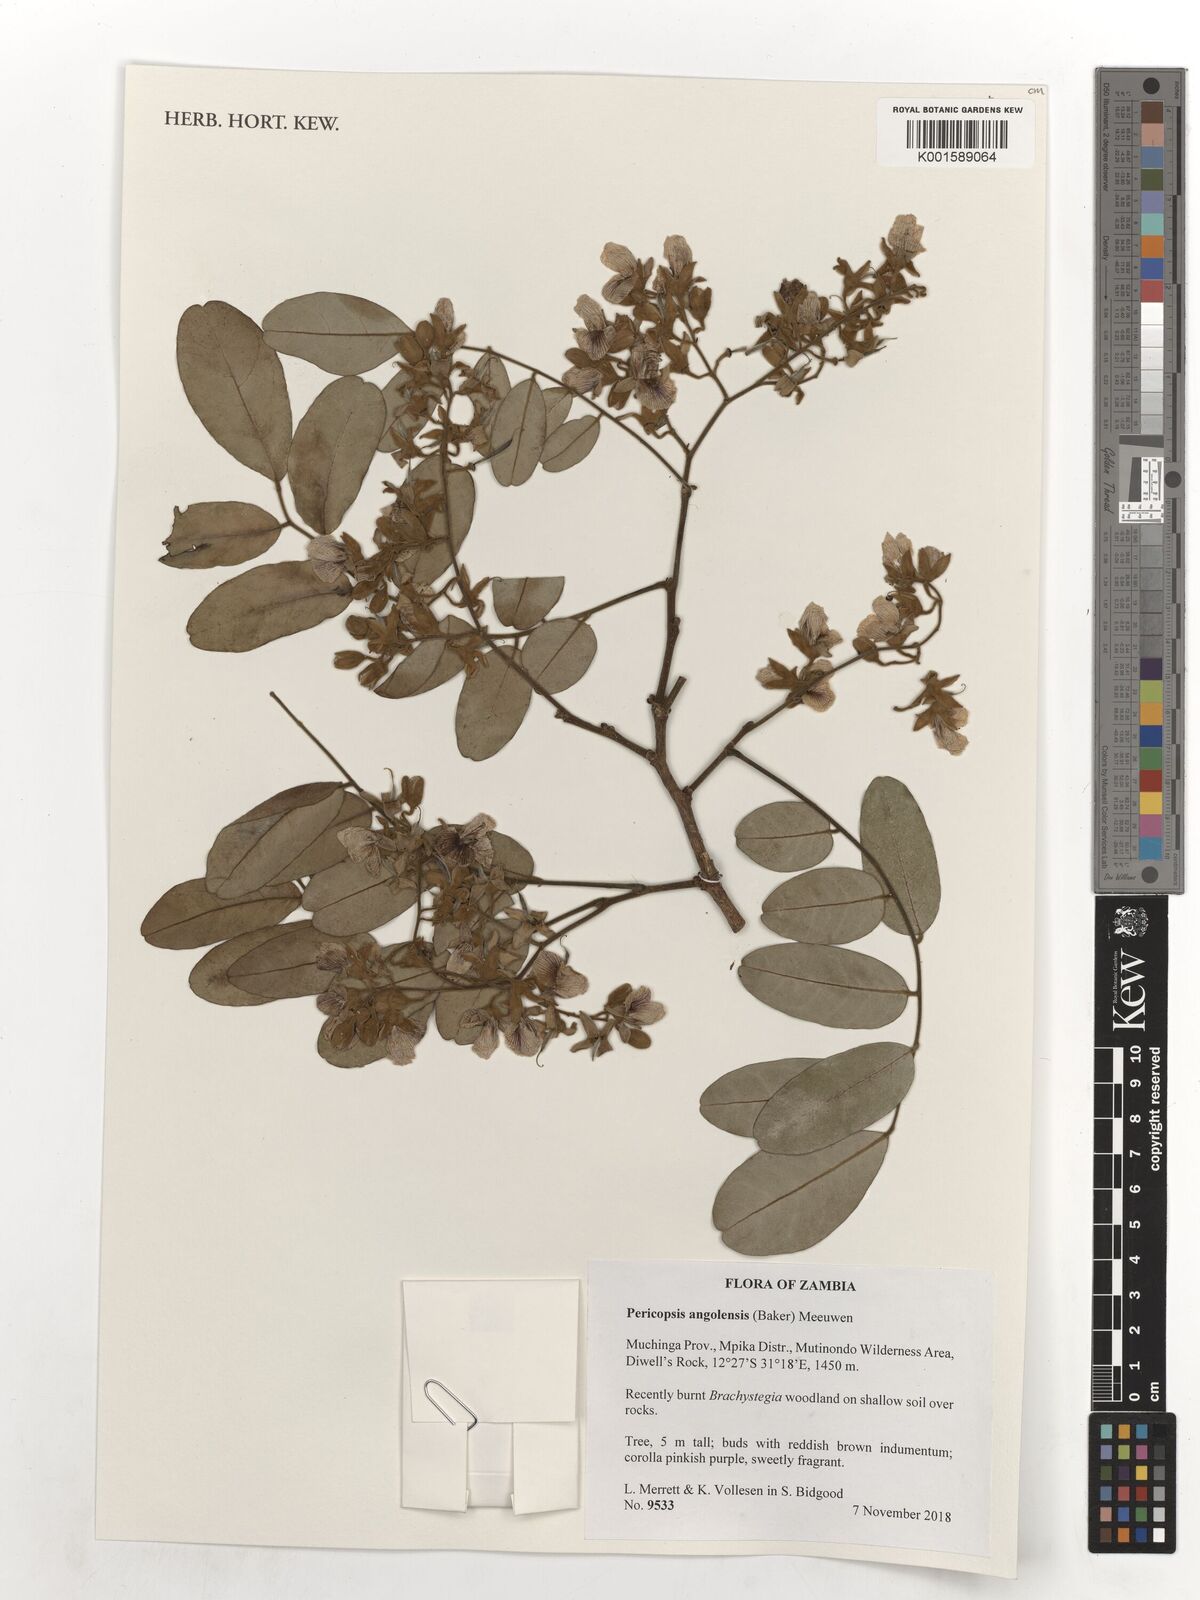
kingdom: Plantae
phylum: Tracheophyta
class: Magnoliopsida
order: Fabales
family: Fabaceae
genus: Pericopsis
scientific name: Pericopsis angolensis
